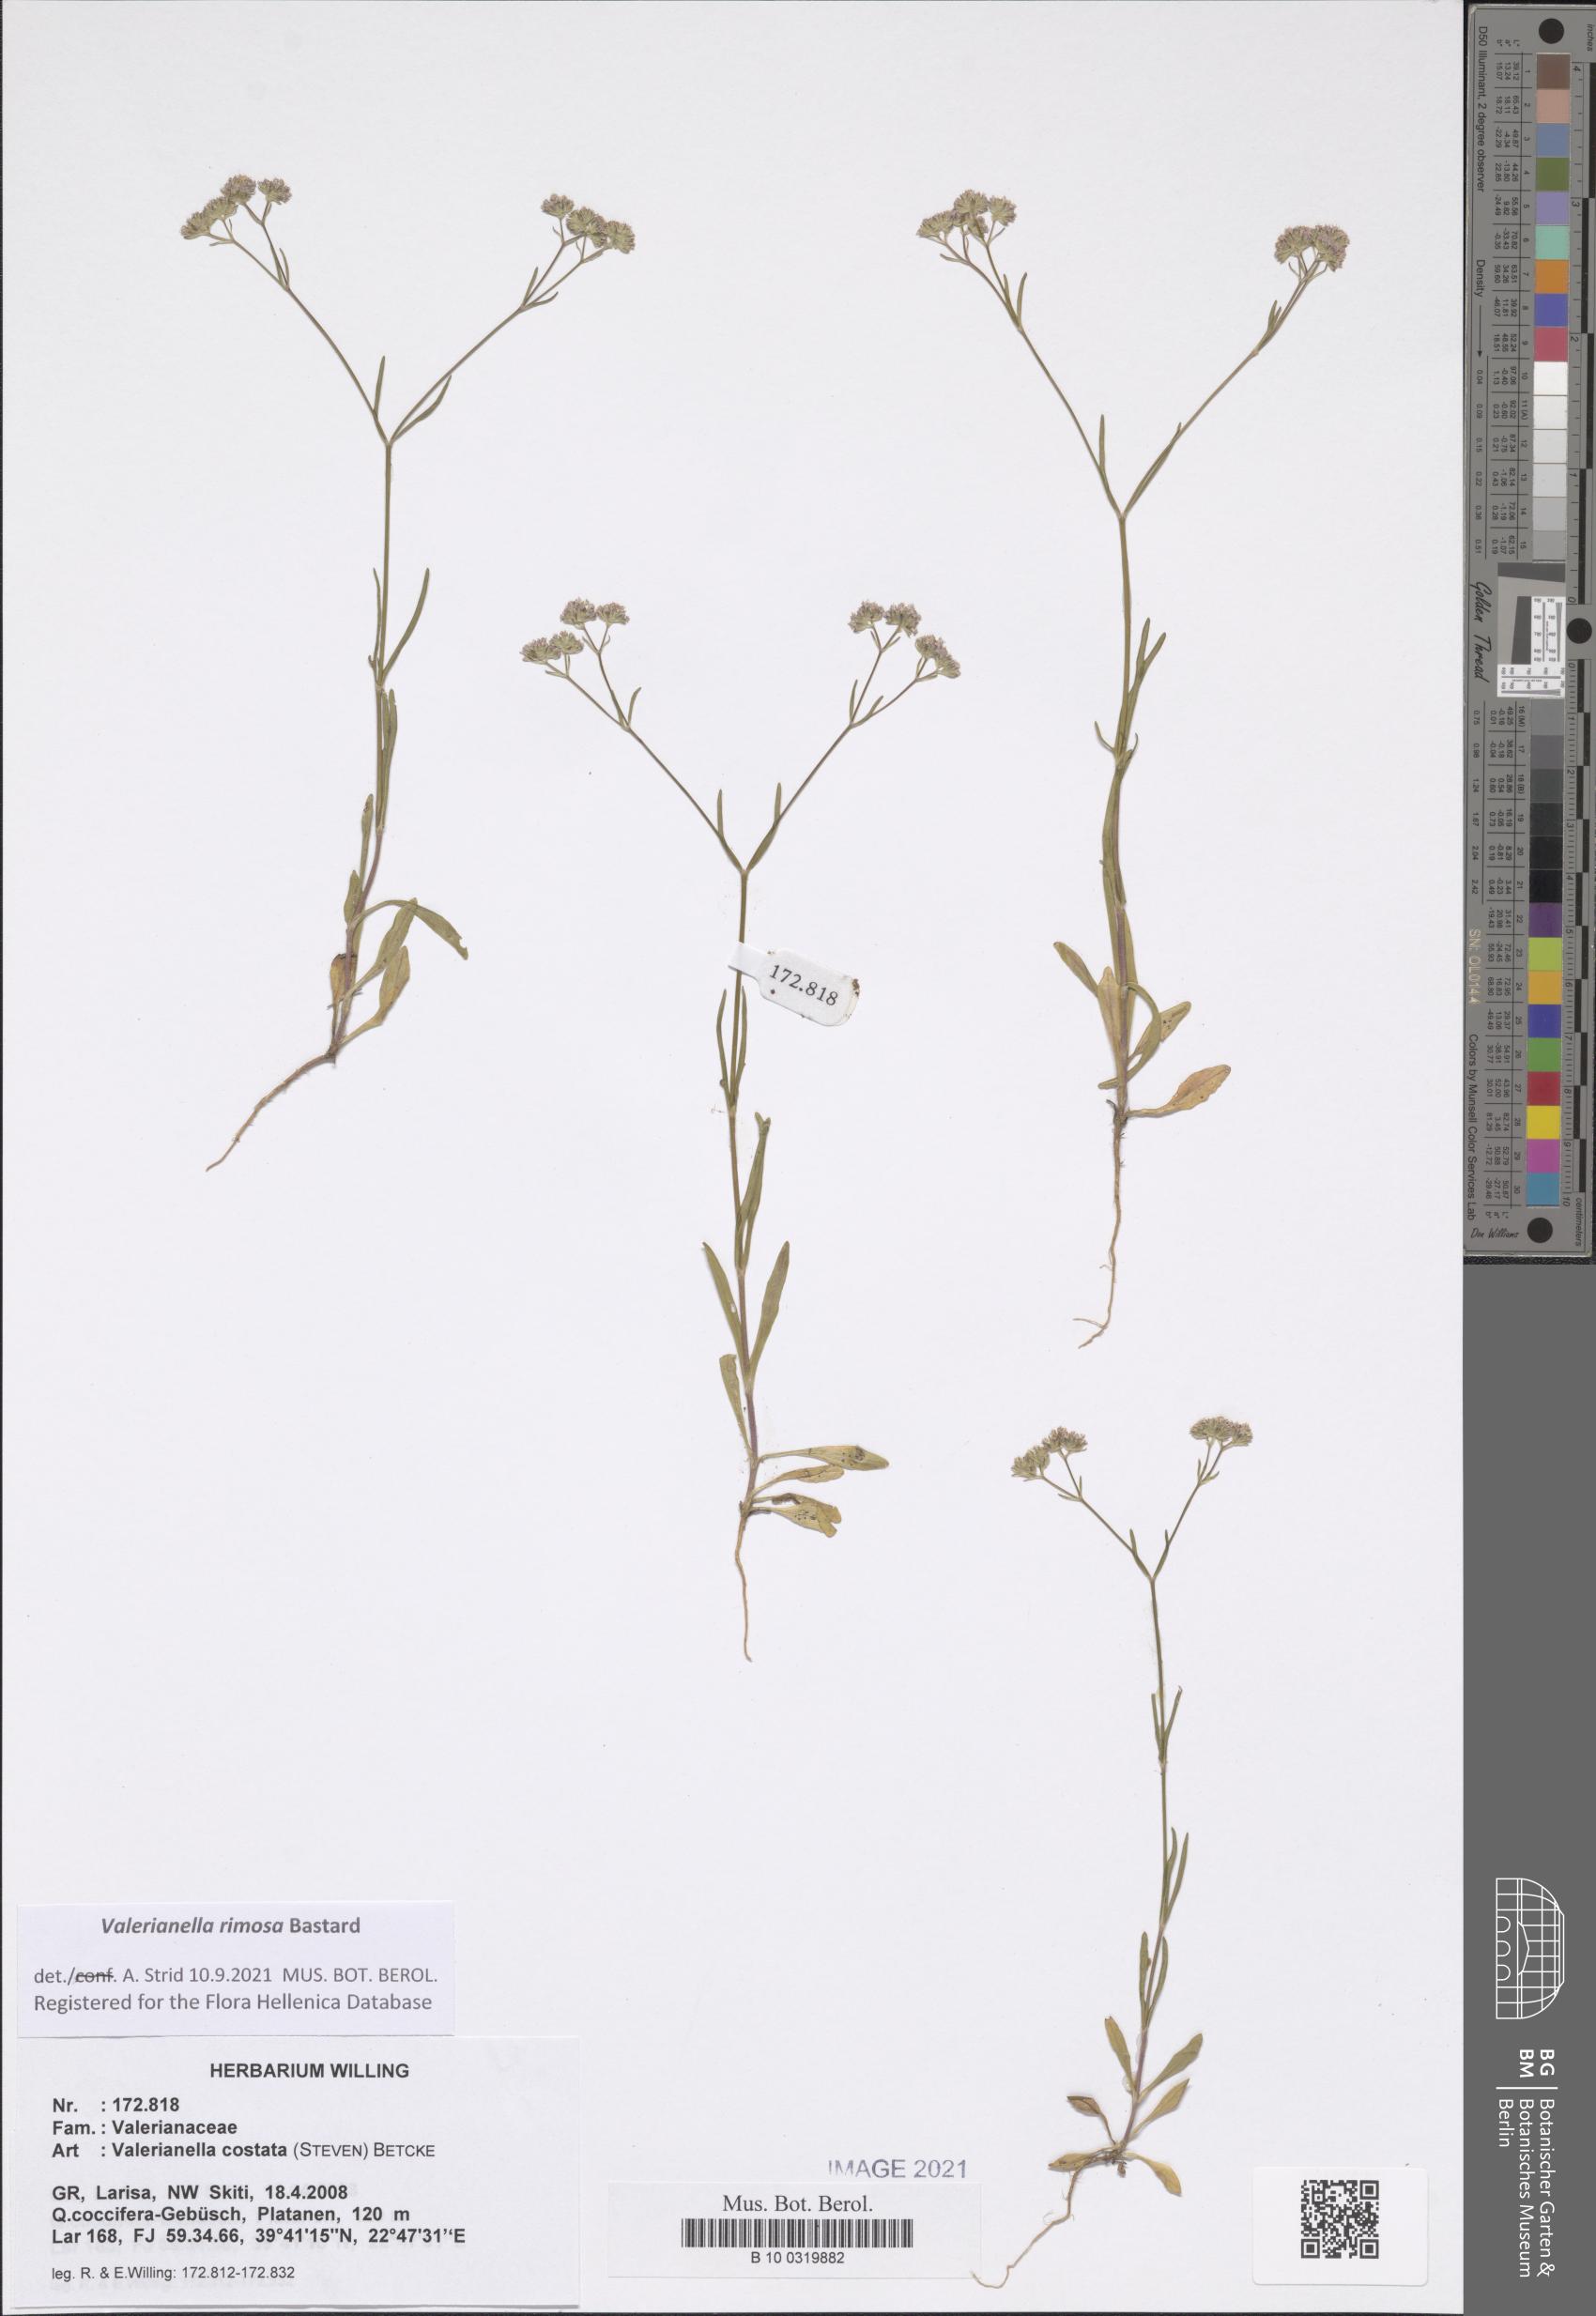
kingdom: Plantae
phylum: Tracheophyta
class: Magnoliopsida
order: Dipsacales
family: Caprifoliaceae
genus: Valerianella
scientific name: Valerianella rimosa
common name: Broad-fruited cornsalad
